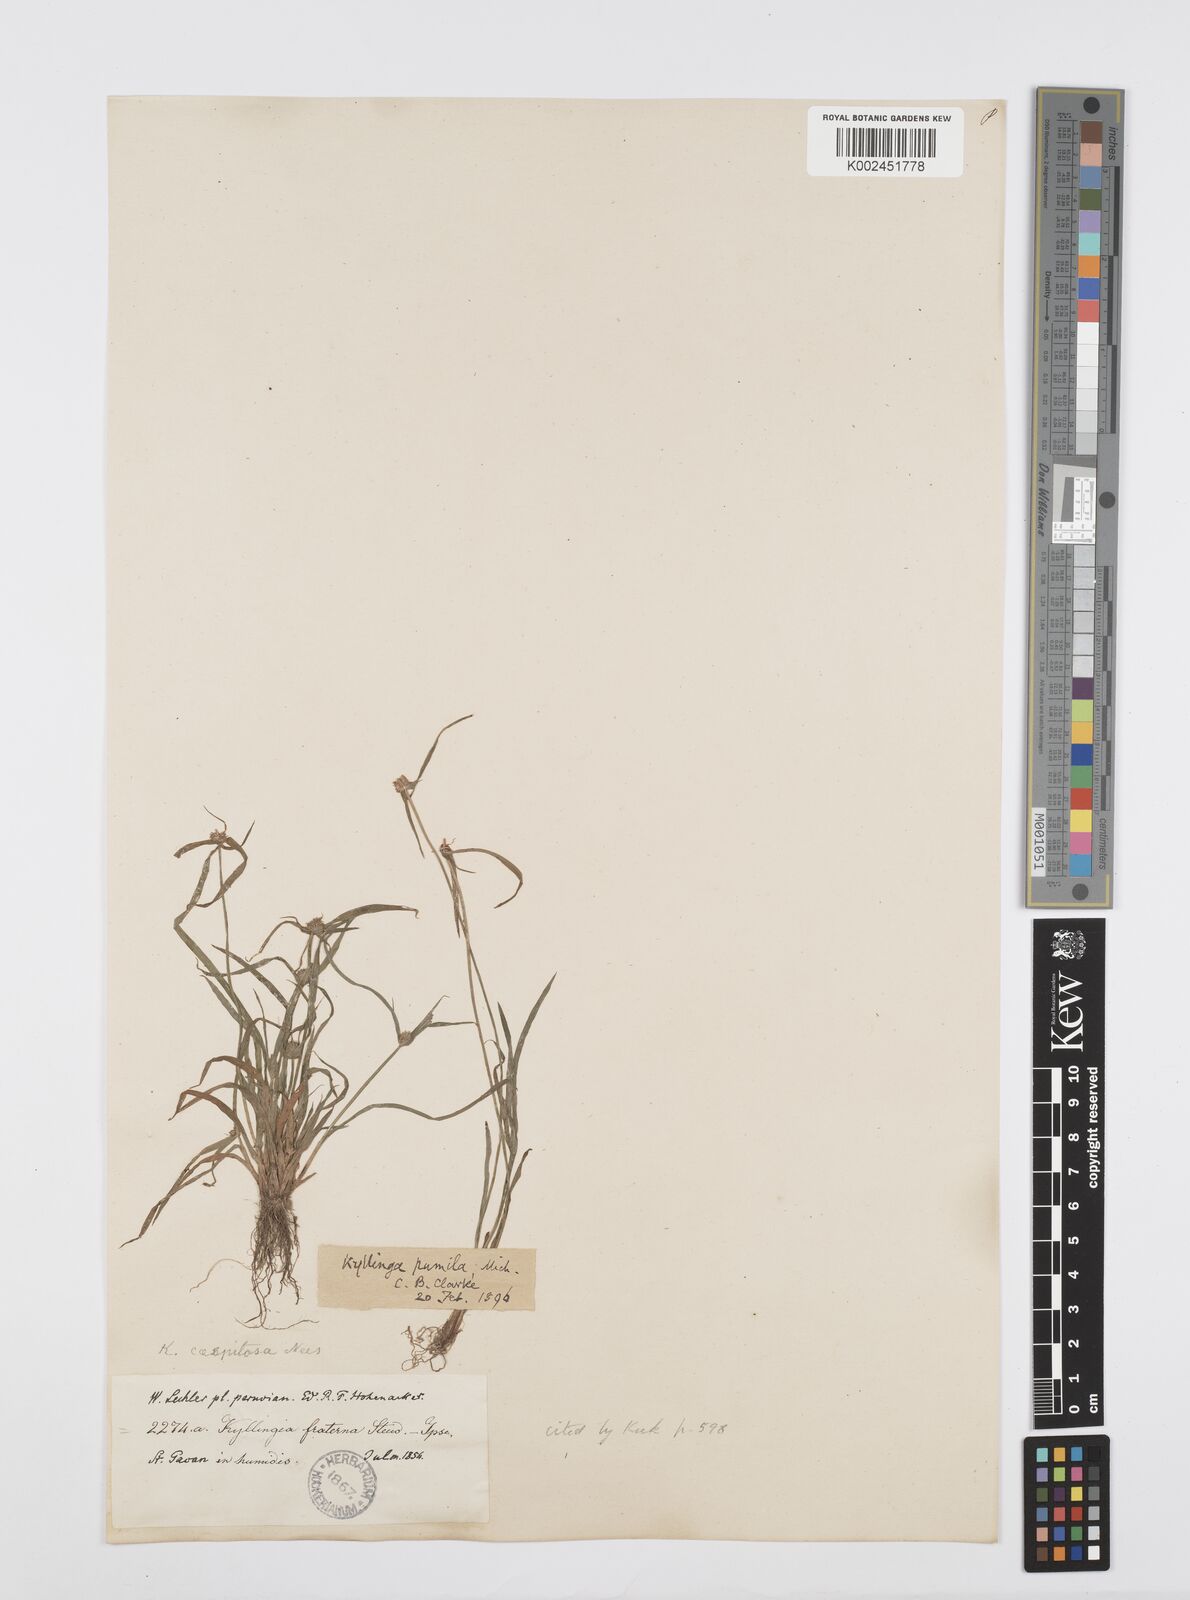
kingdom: Plantae
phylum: Tracheophyta
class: Liliopsida
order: Poales
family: Cyperaceae
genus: Cyperus
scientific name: Cyperus
